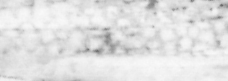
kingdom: Animalia
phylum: Chordata
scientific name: Chordata
